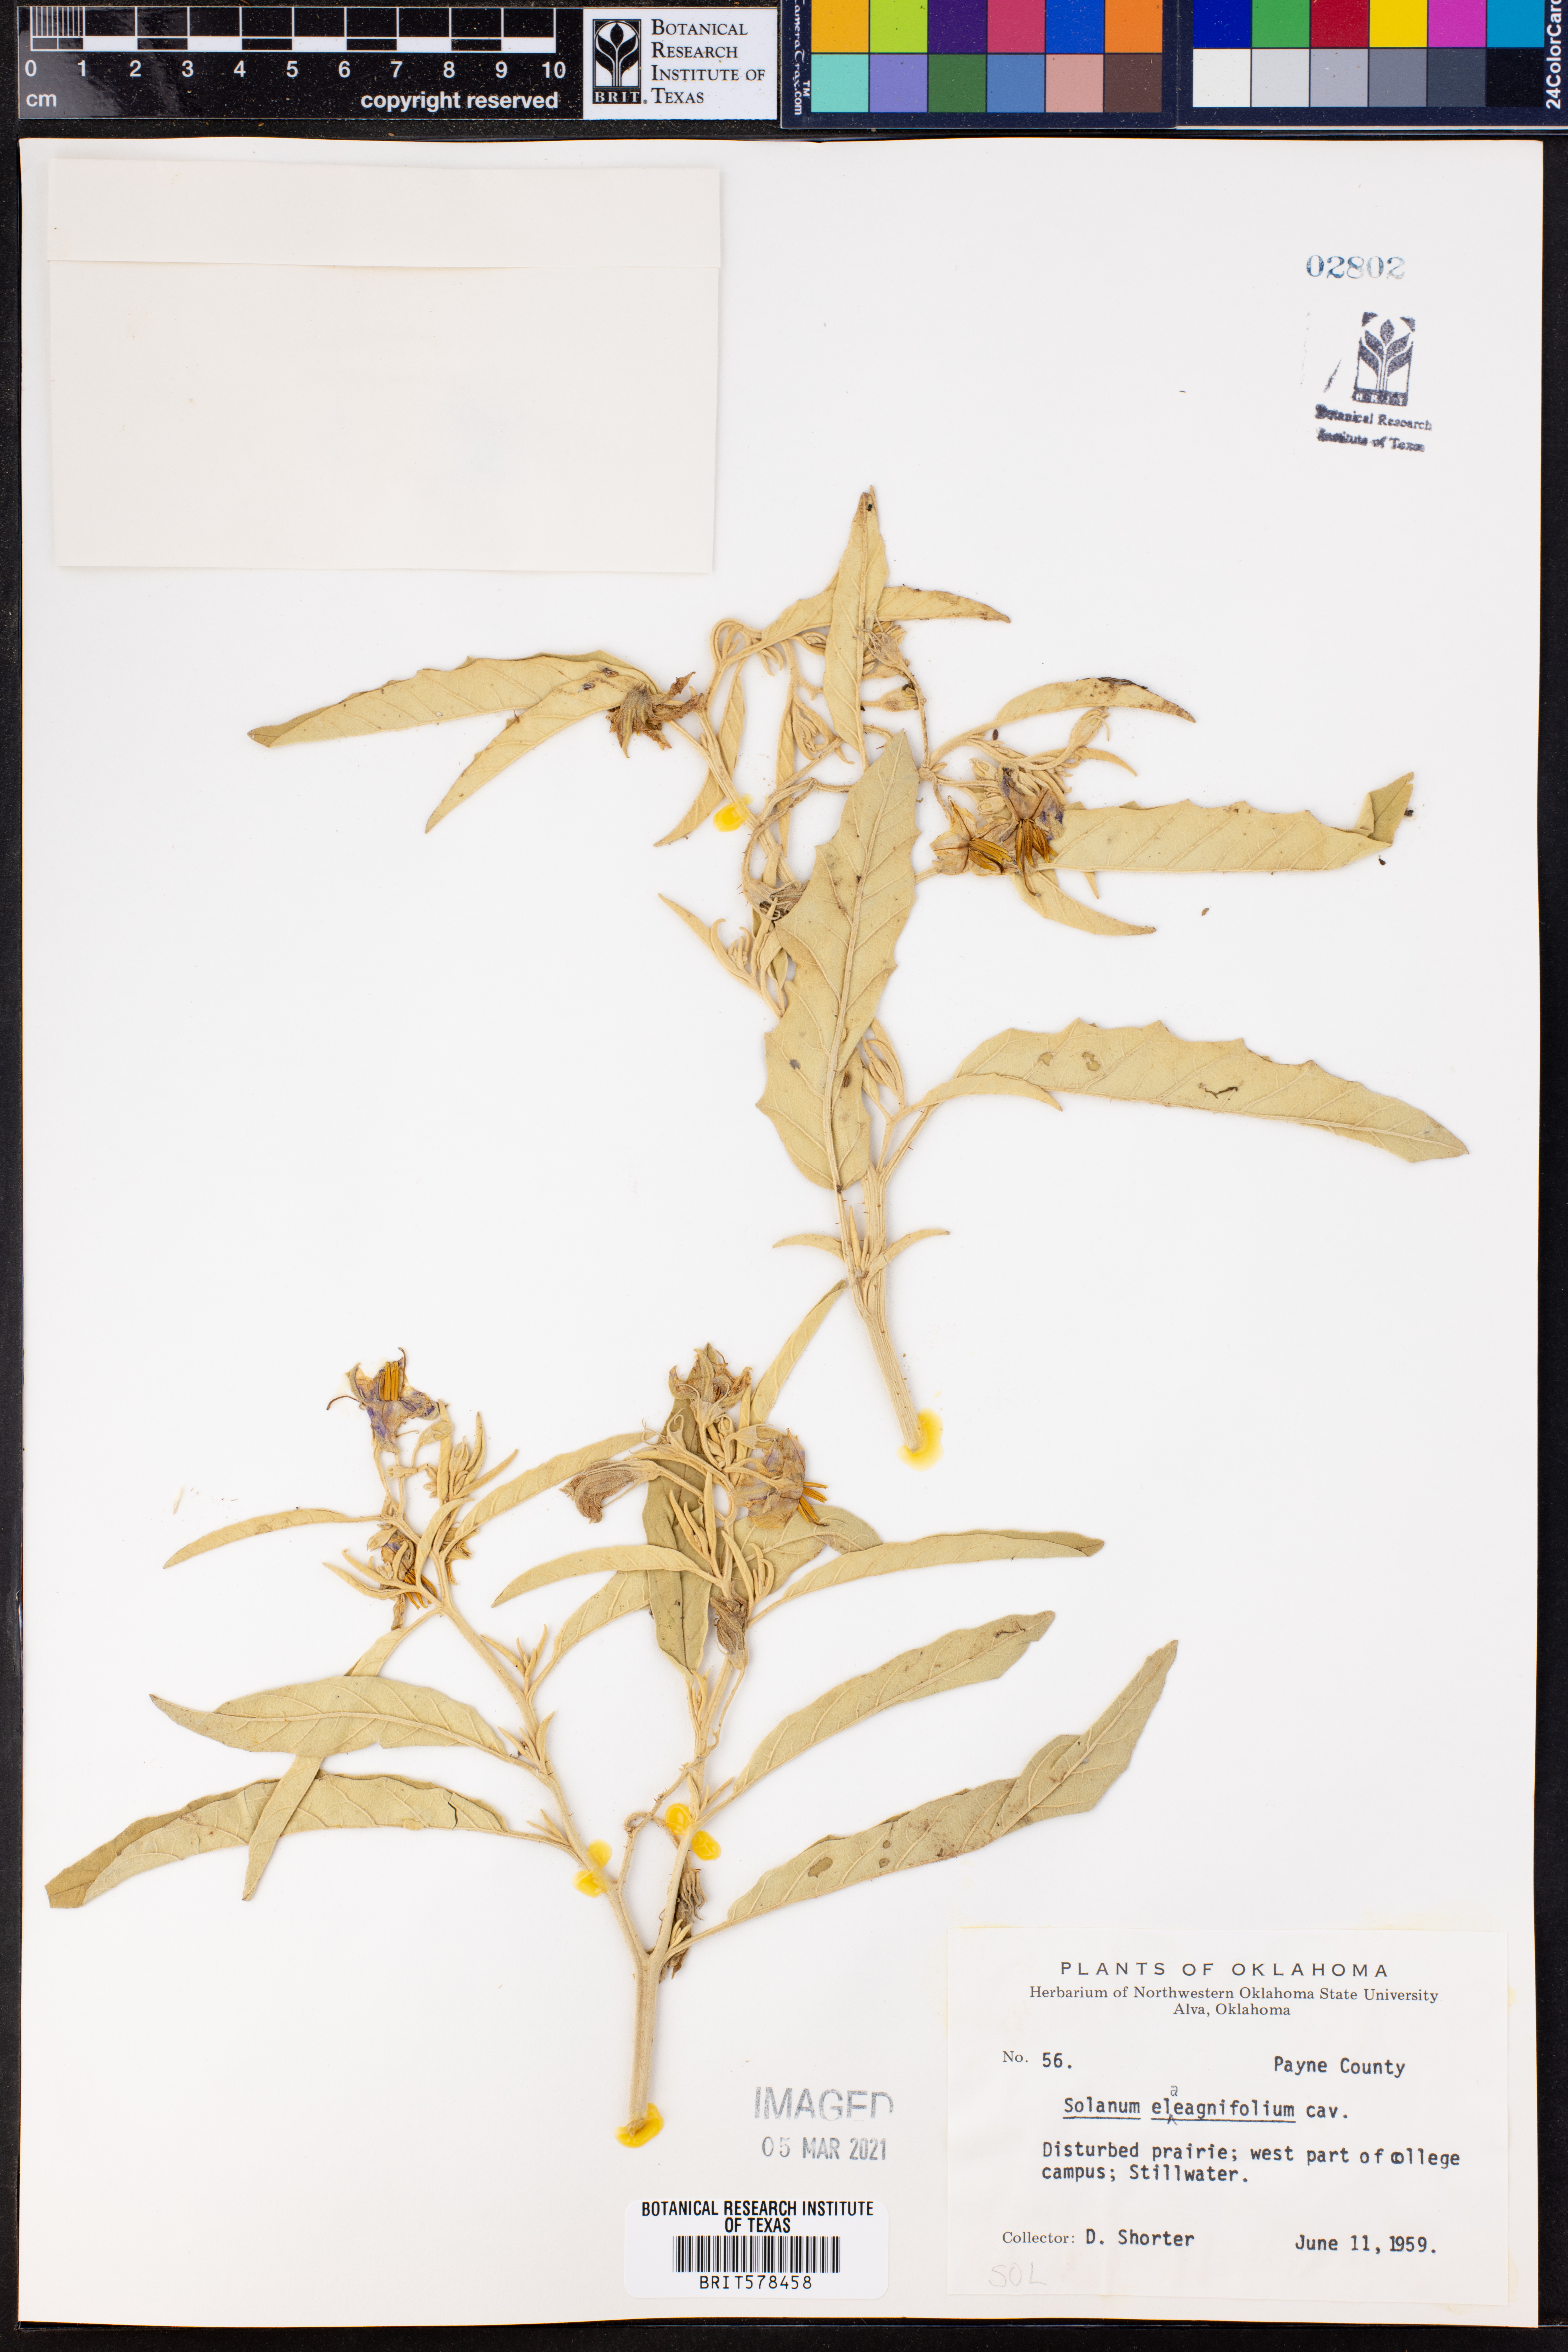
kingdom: Plantae
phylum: Tracheophyta
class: Magnoliopsida
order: Solanales
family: Solanaceae
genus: Solanum
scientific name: Solanum elaeagnifolium
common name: Silverleaf nightshade
